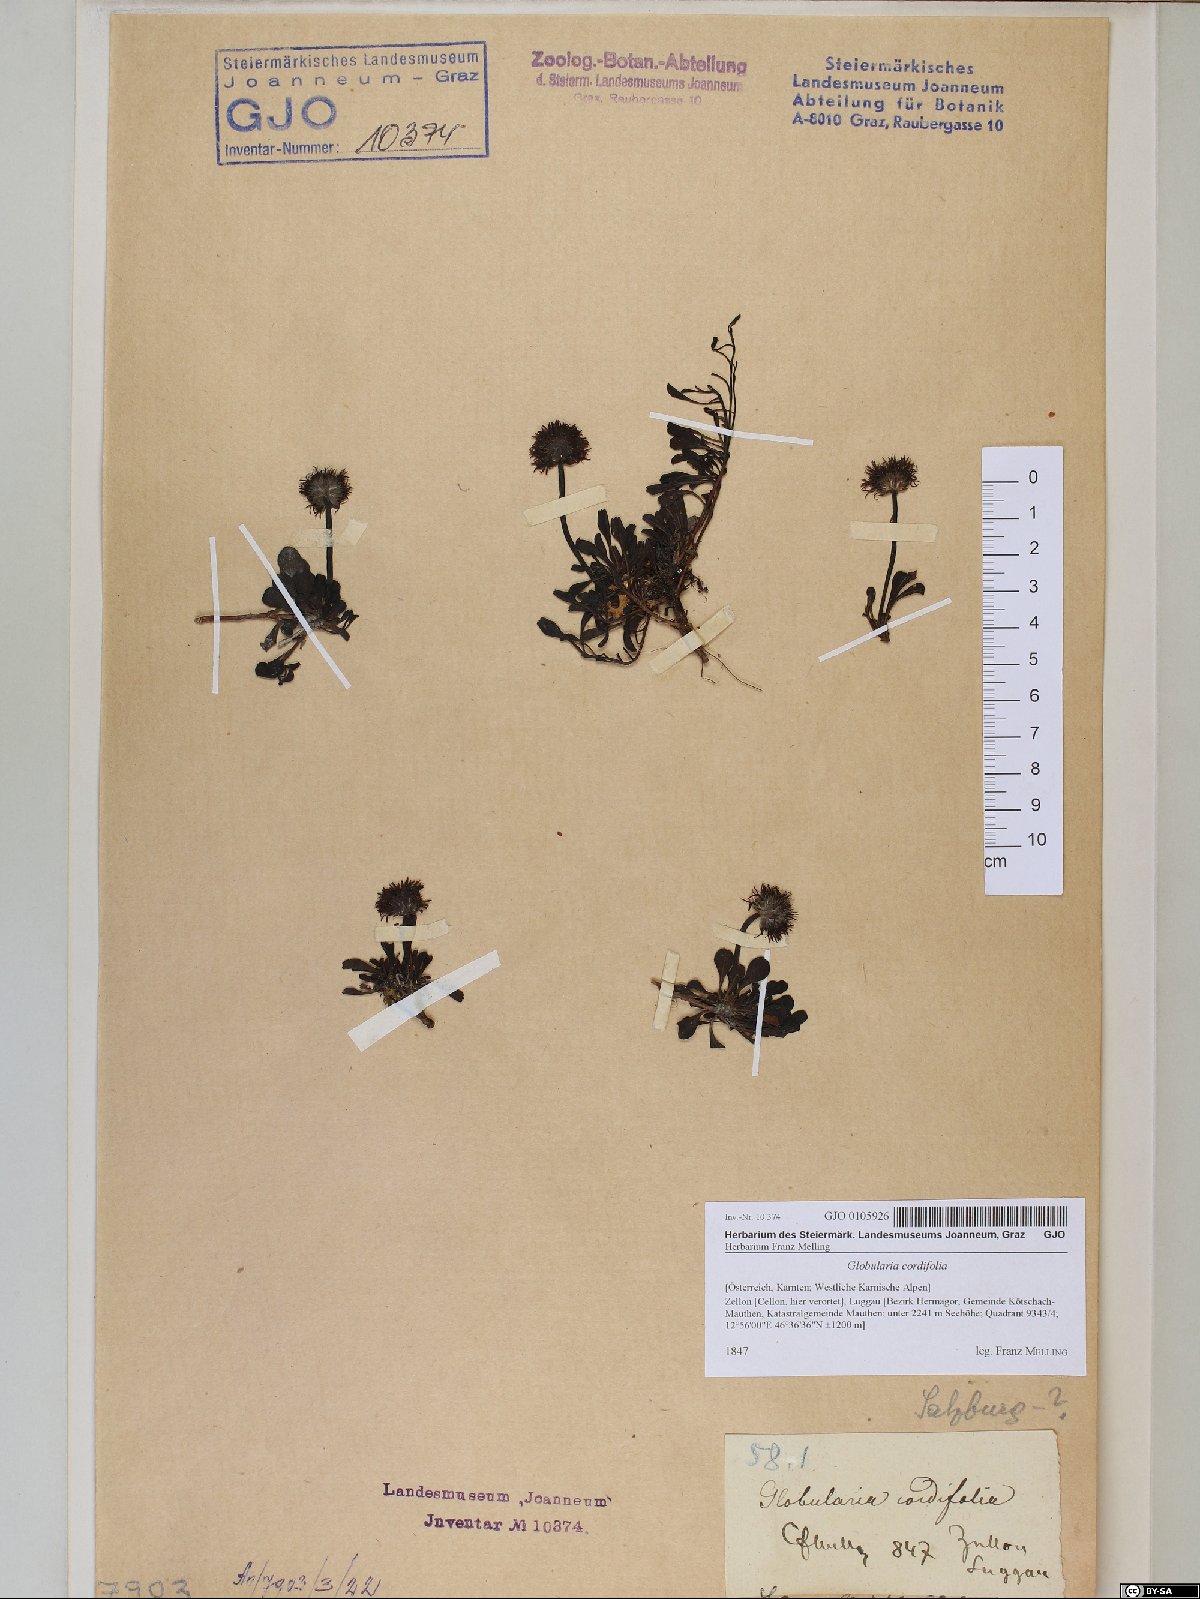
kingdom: Plantae
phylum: Tracheophyta
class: Magnoliopsida
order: Lamiales
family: Plantaginaceae
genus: Globularia
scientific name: Globularia cordifolia
